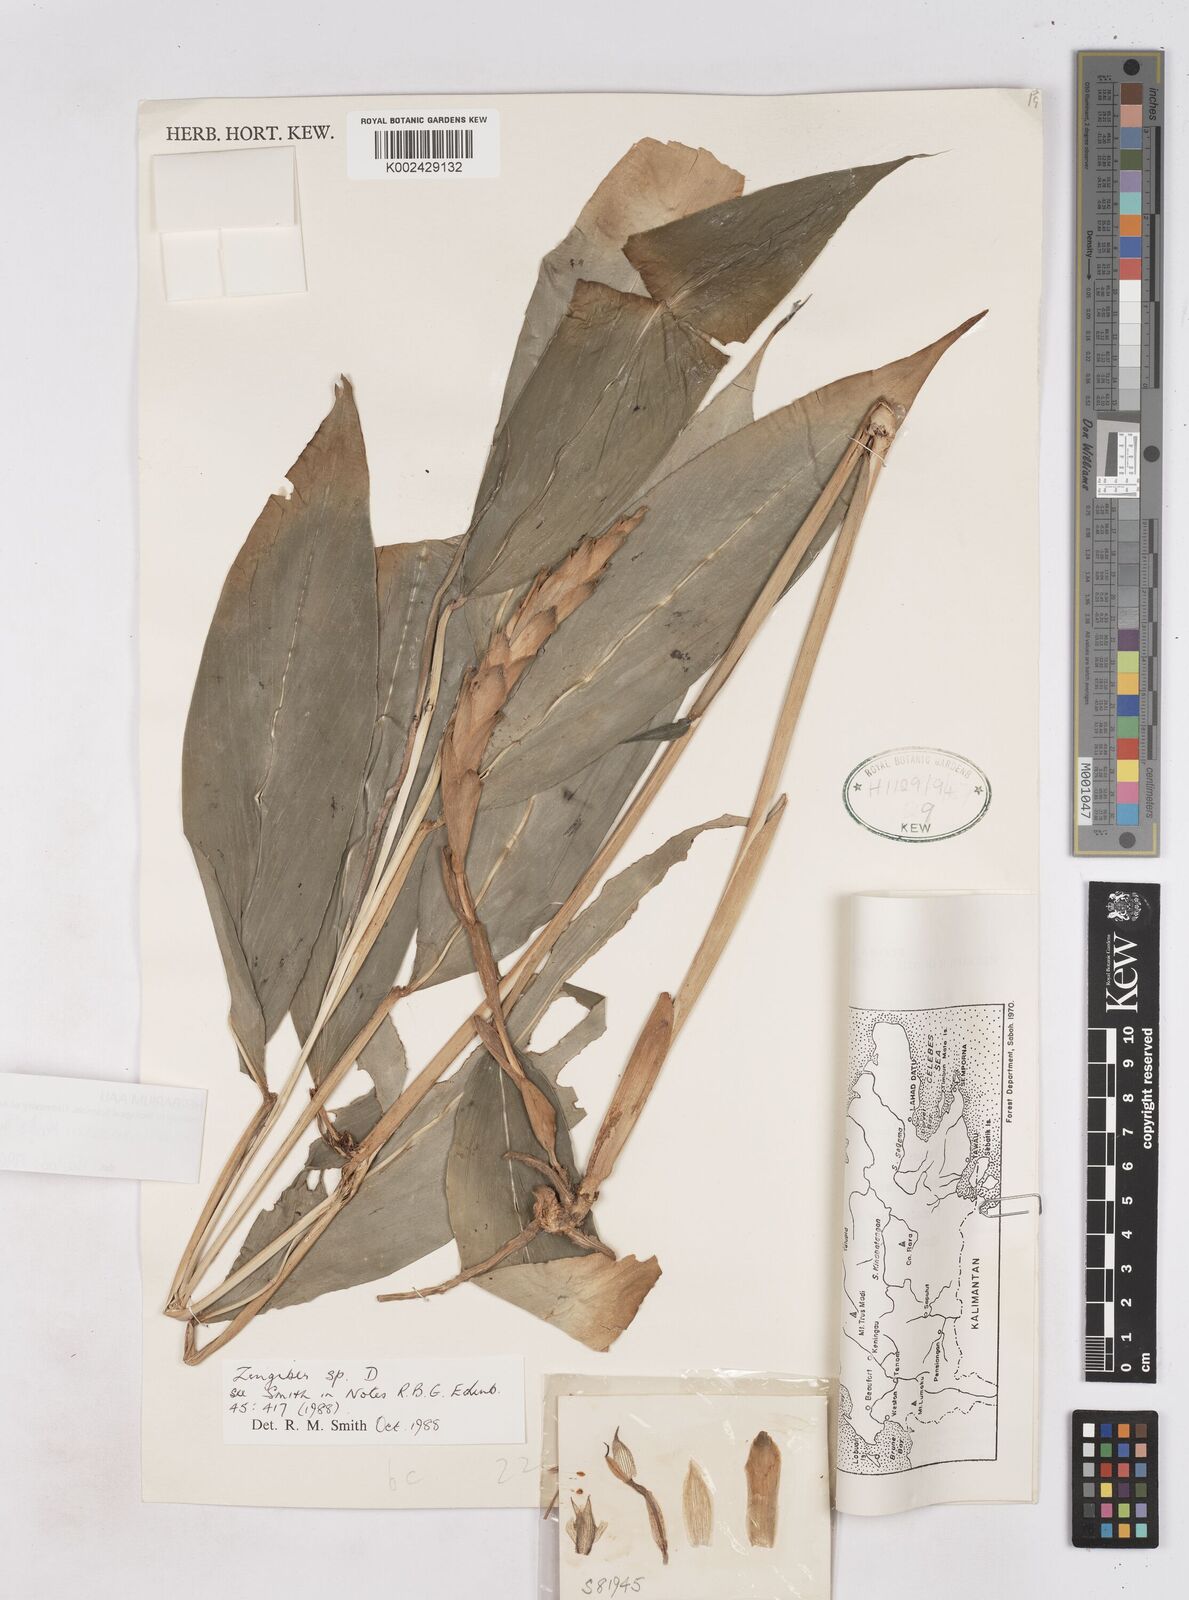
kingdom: Plantae
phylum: Tracheophyta
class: Liliopsida
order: Zingiberales
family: Zingiberaceae
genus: Zingiber
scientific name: Zingiber vinosum
